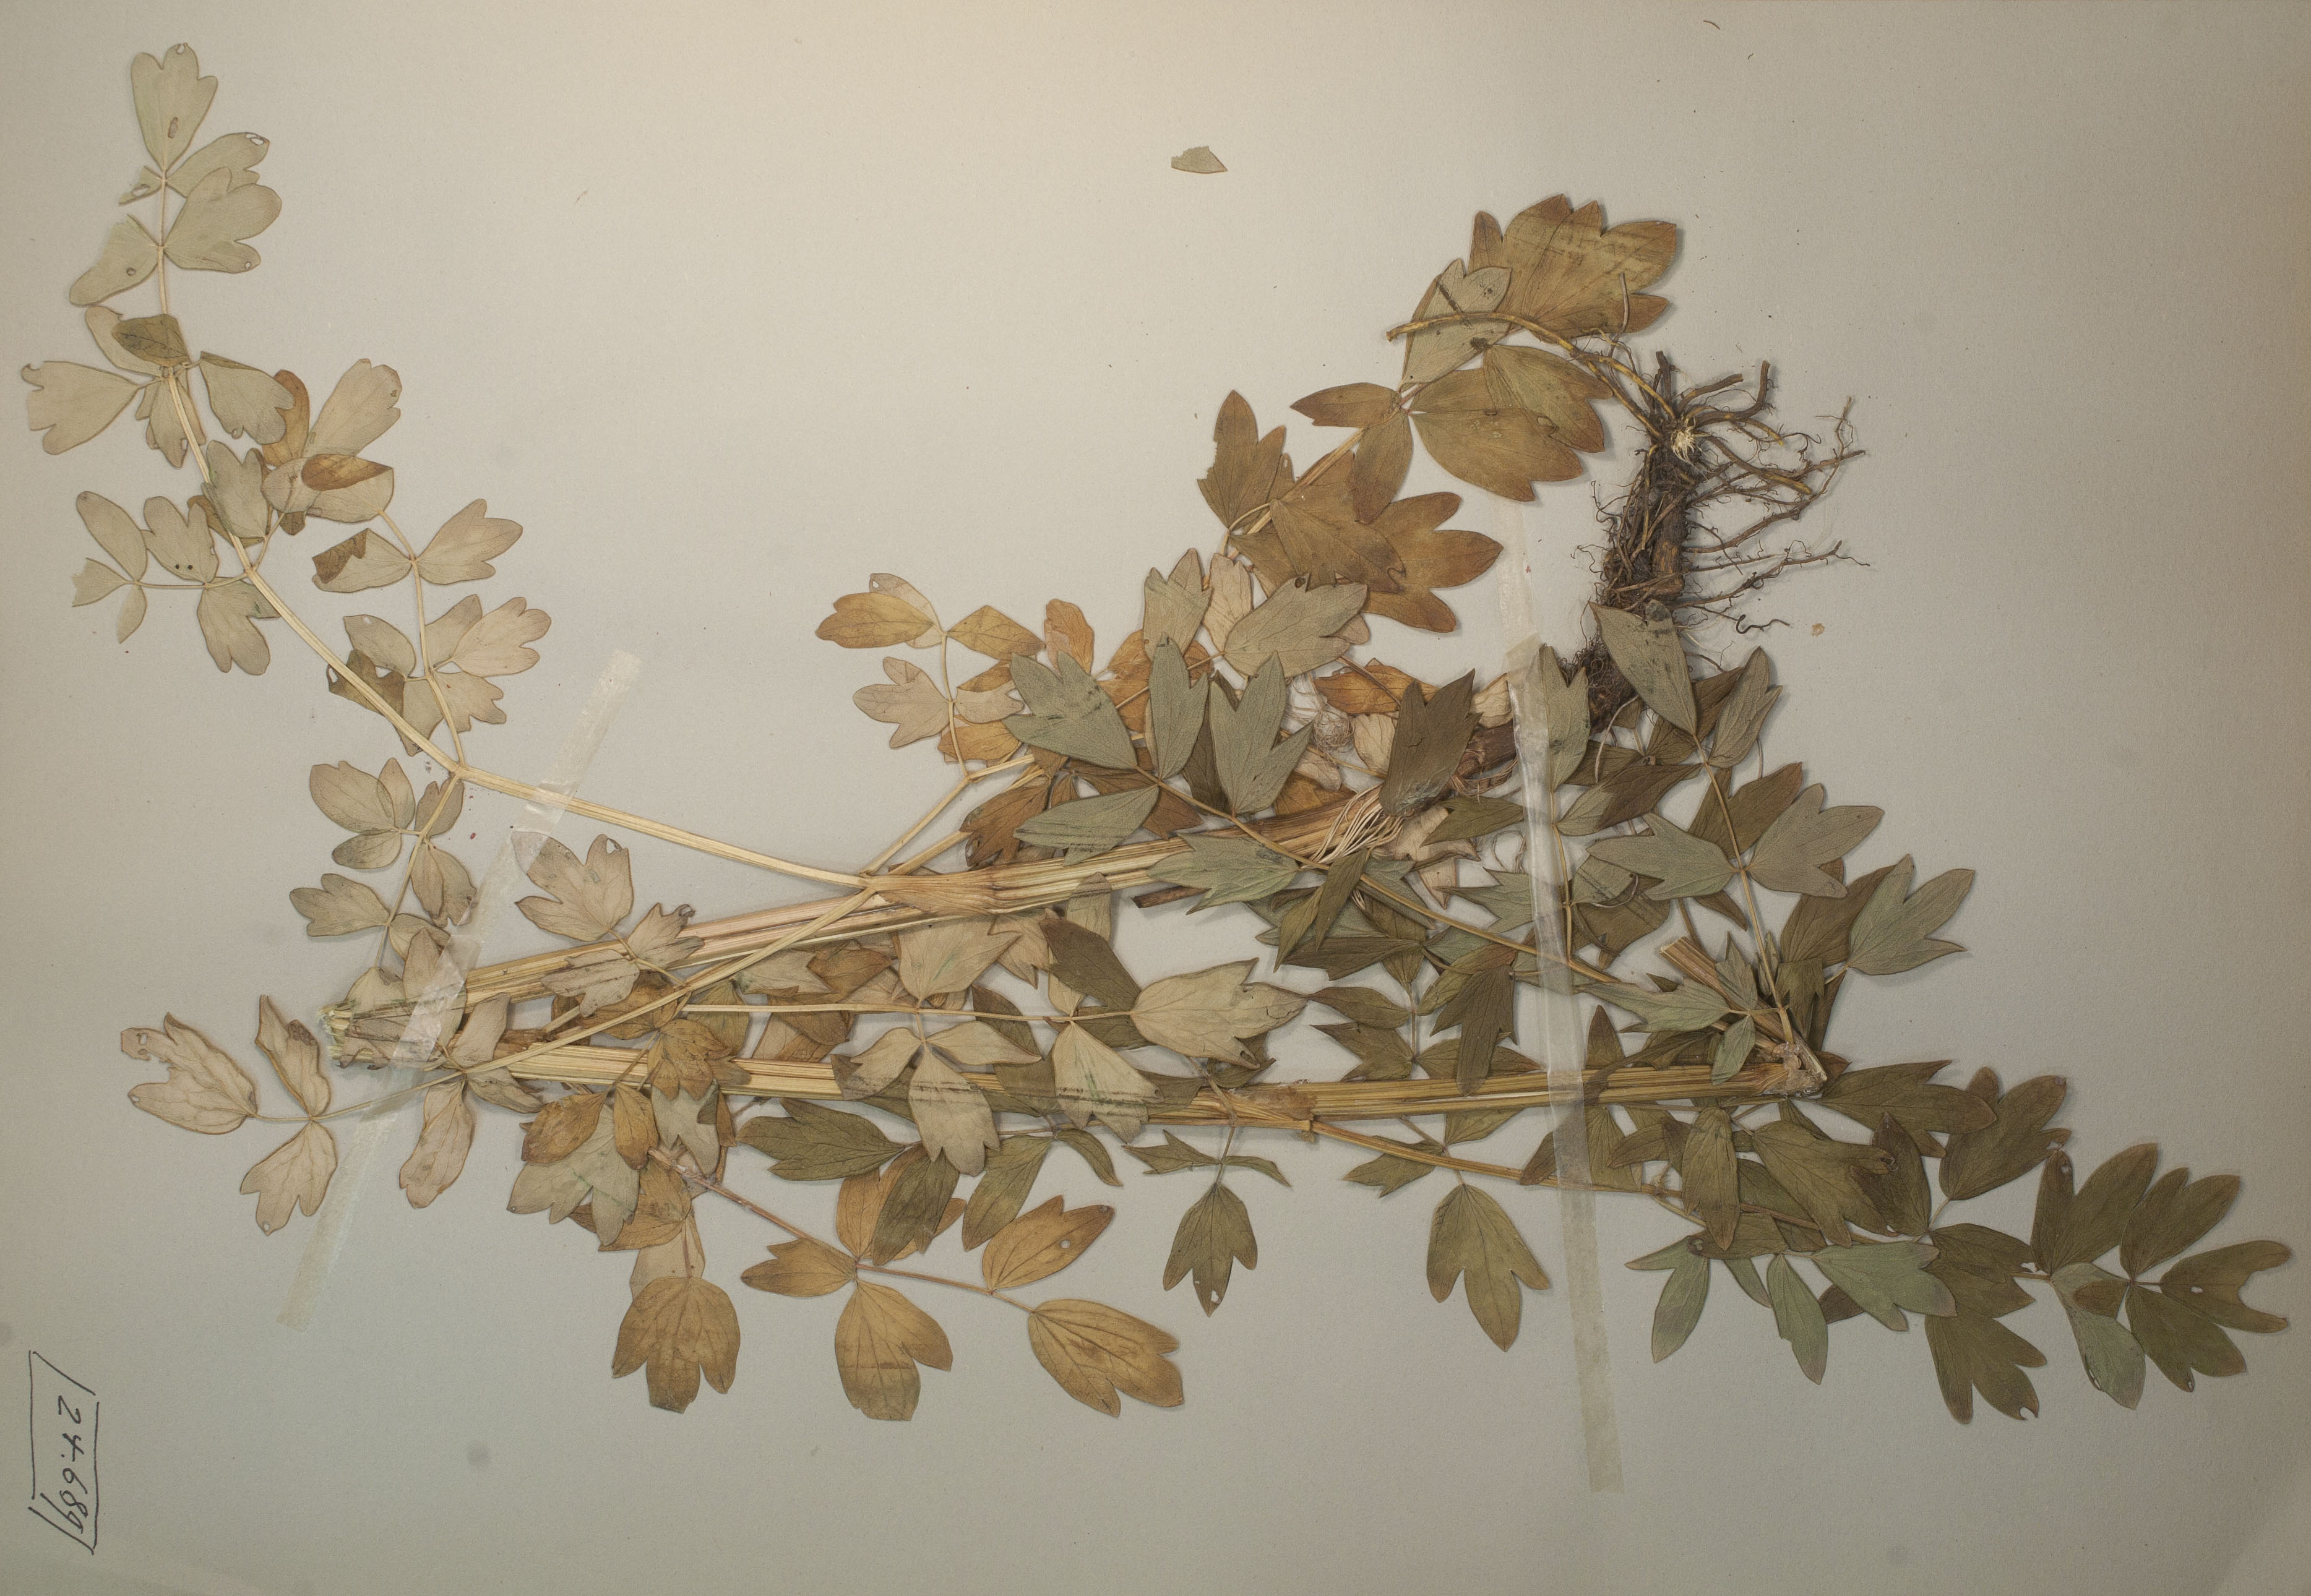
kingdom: Plantae
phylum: Tracheophyta
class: Magnoliopsida
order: Ranunculales
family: Ranunculaceae
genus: Thalictrum
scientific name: Thalictrum flavum
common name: Common meadow-rue
